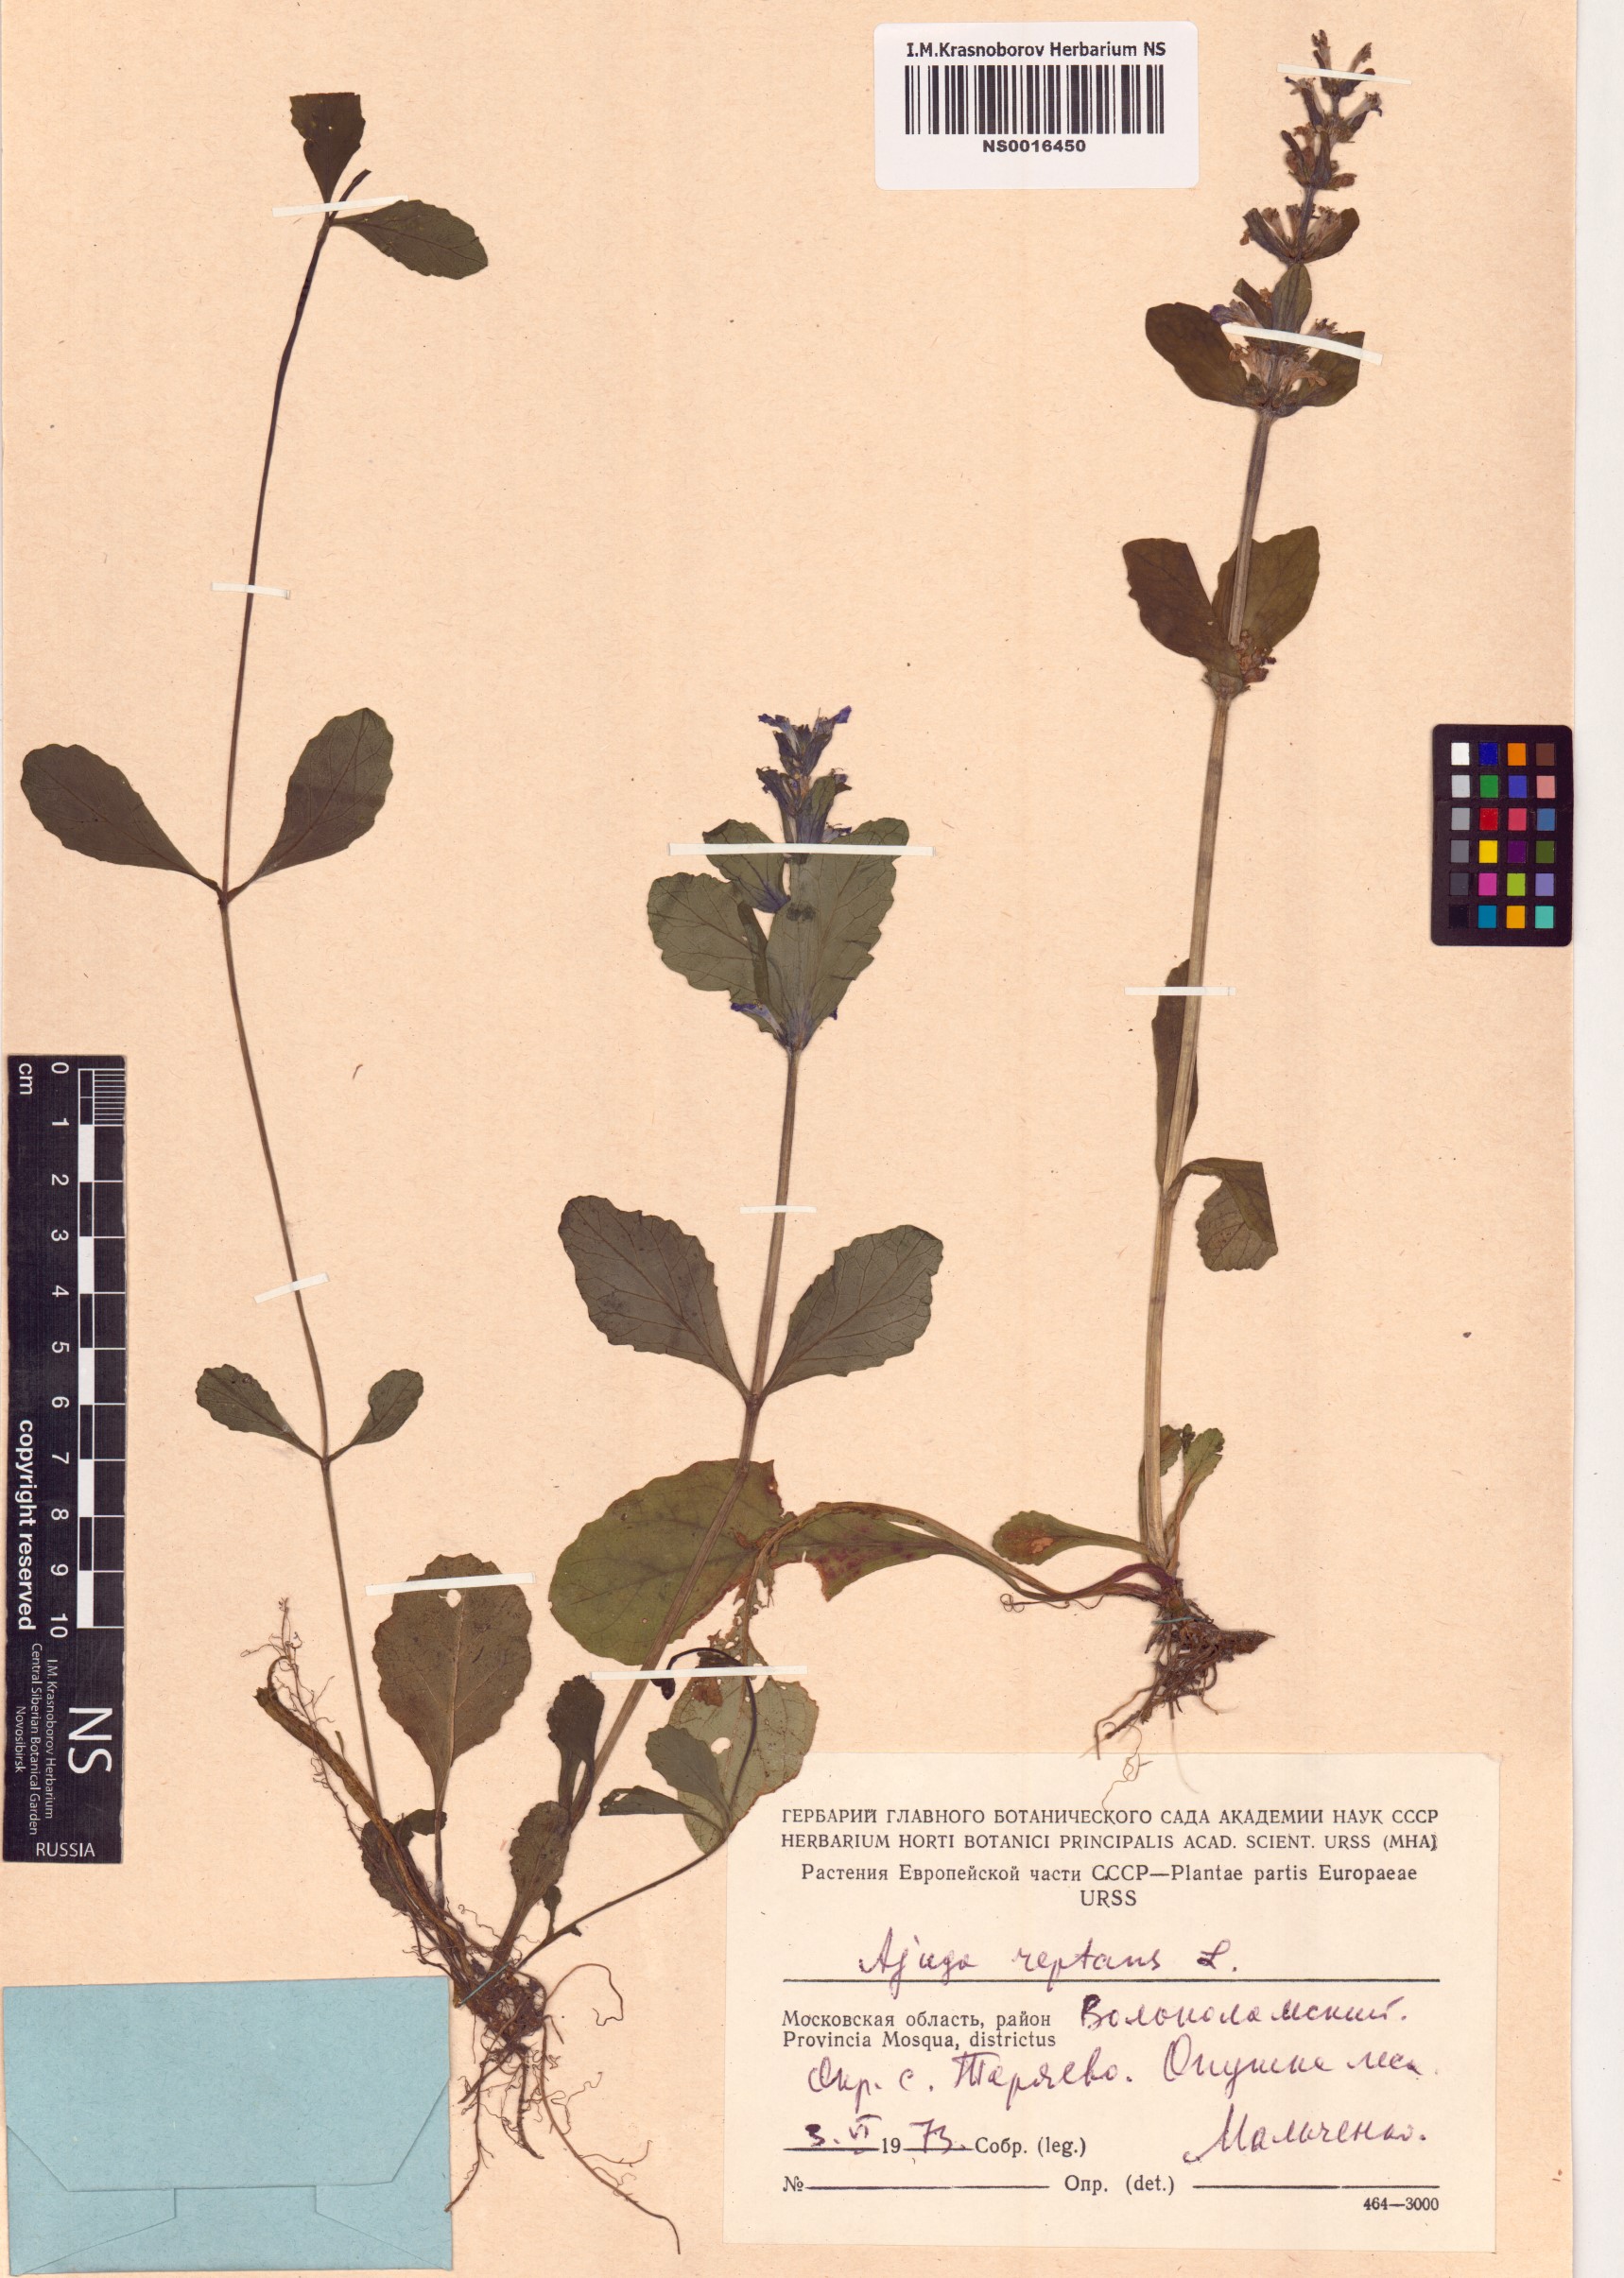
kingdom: Plantae
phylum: Tracheophyta
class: Magnoliopsida
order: Lamiales
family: Lamiaceae
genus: Ajuga
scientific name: Ajuga reptans
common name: Bugle
